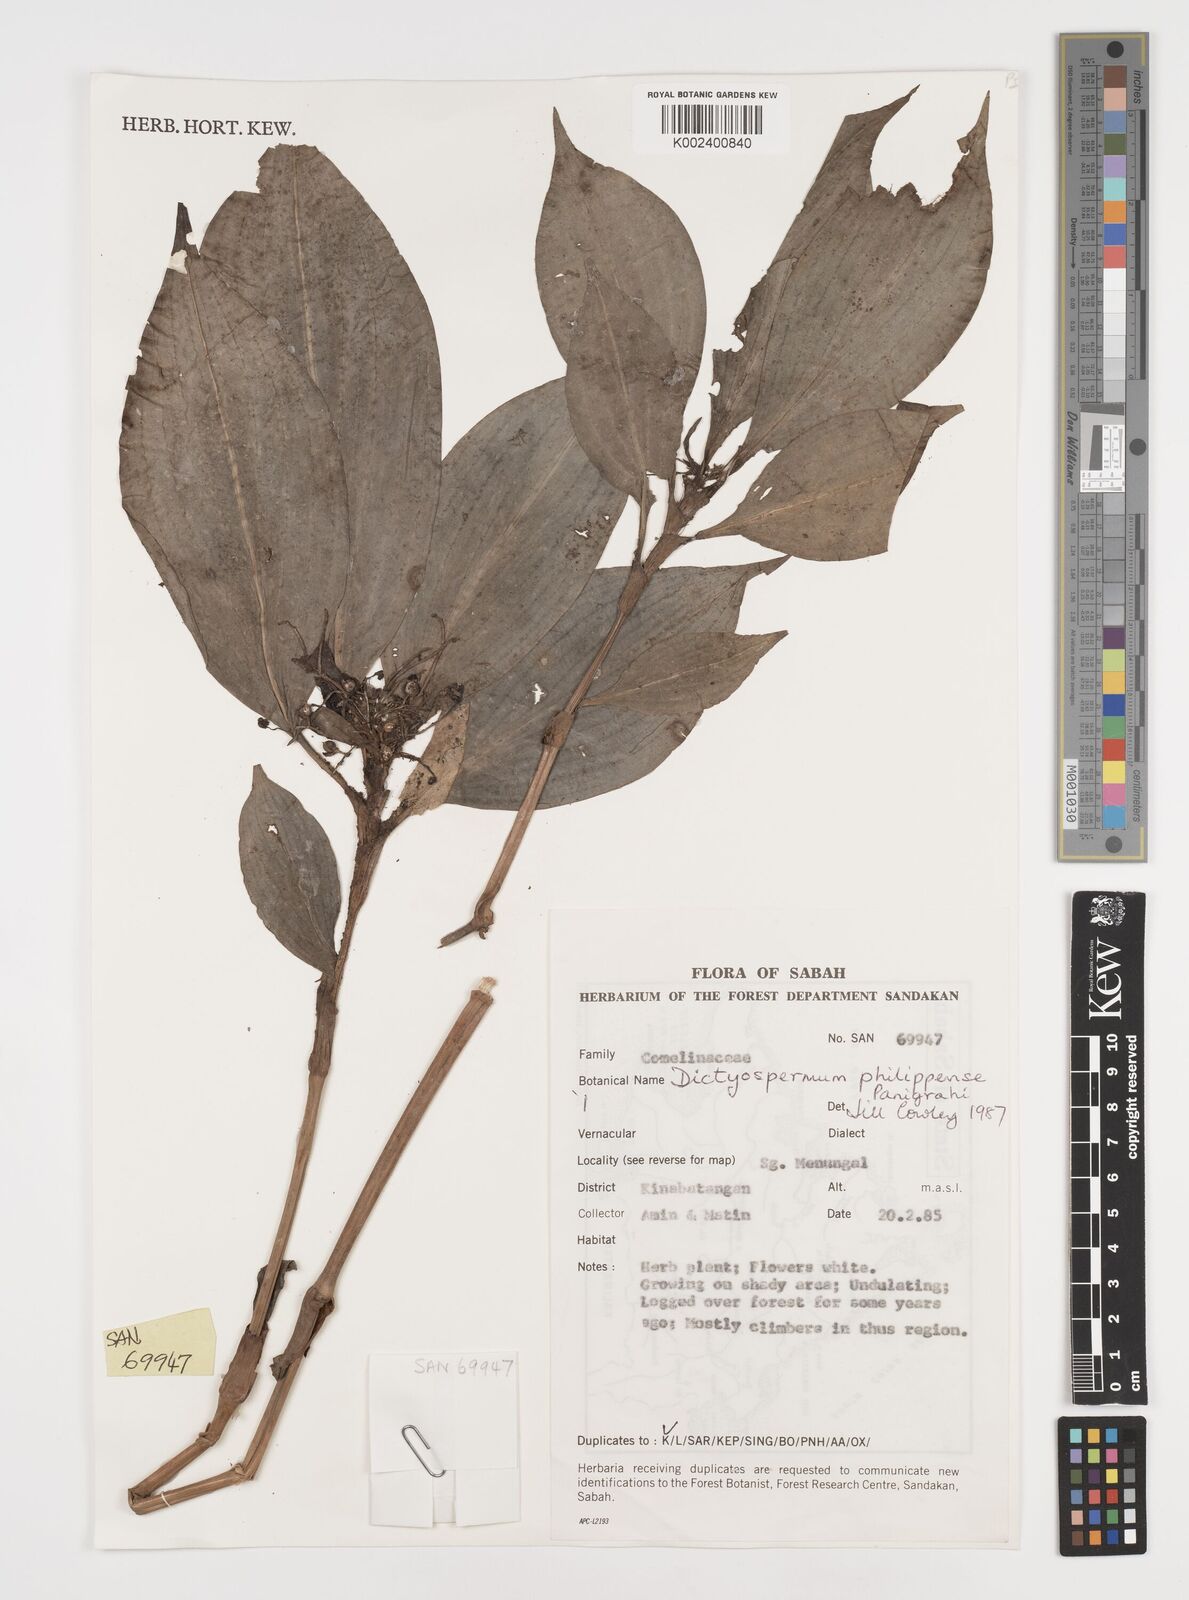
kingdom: Plantae
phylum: Tracheophyta
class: Liliopsida
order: Commelinales
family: Commelinaceae
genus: Tricarpelema
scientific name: Tricarpelema philippense
